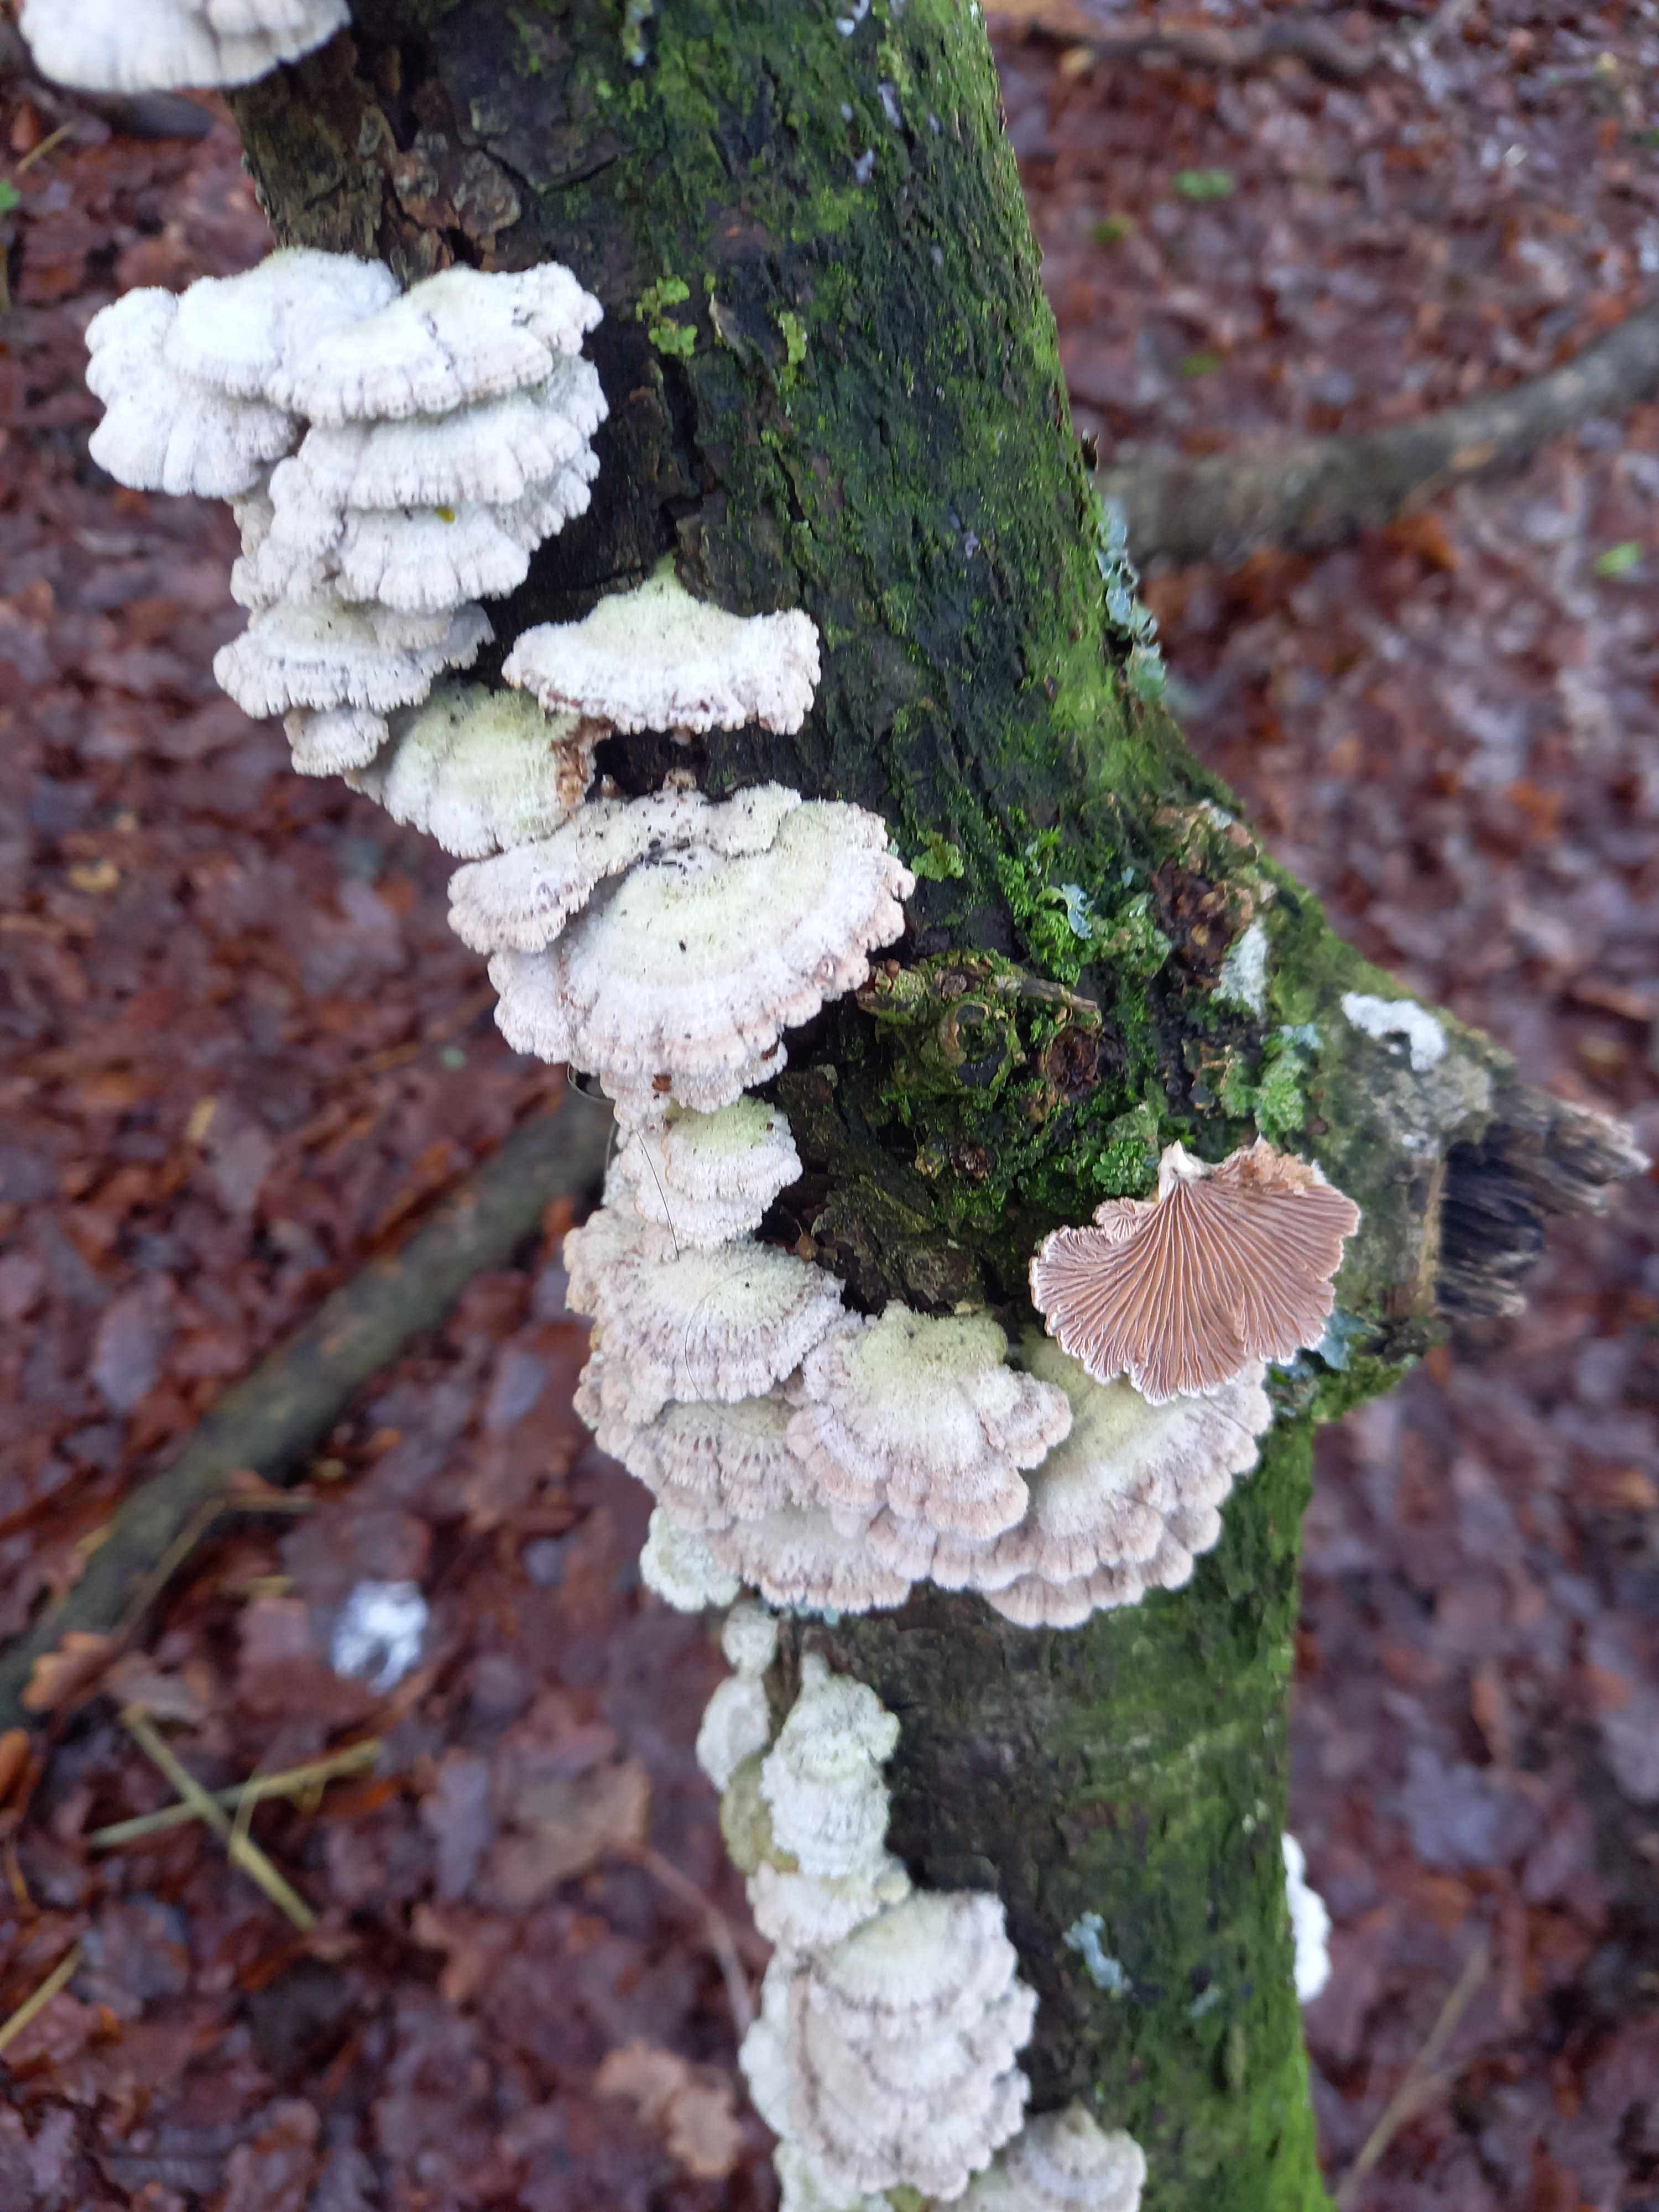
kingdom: Fungi
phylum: Basidiomycota
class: Agaricomycetes
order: Agaricales
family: Schizophyllaceae
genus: Schizophyllum
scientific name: Schizophyllum commune
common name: kløvblad
